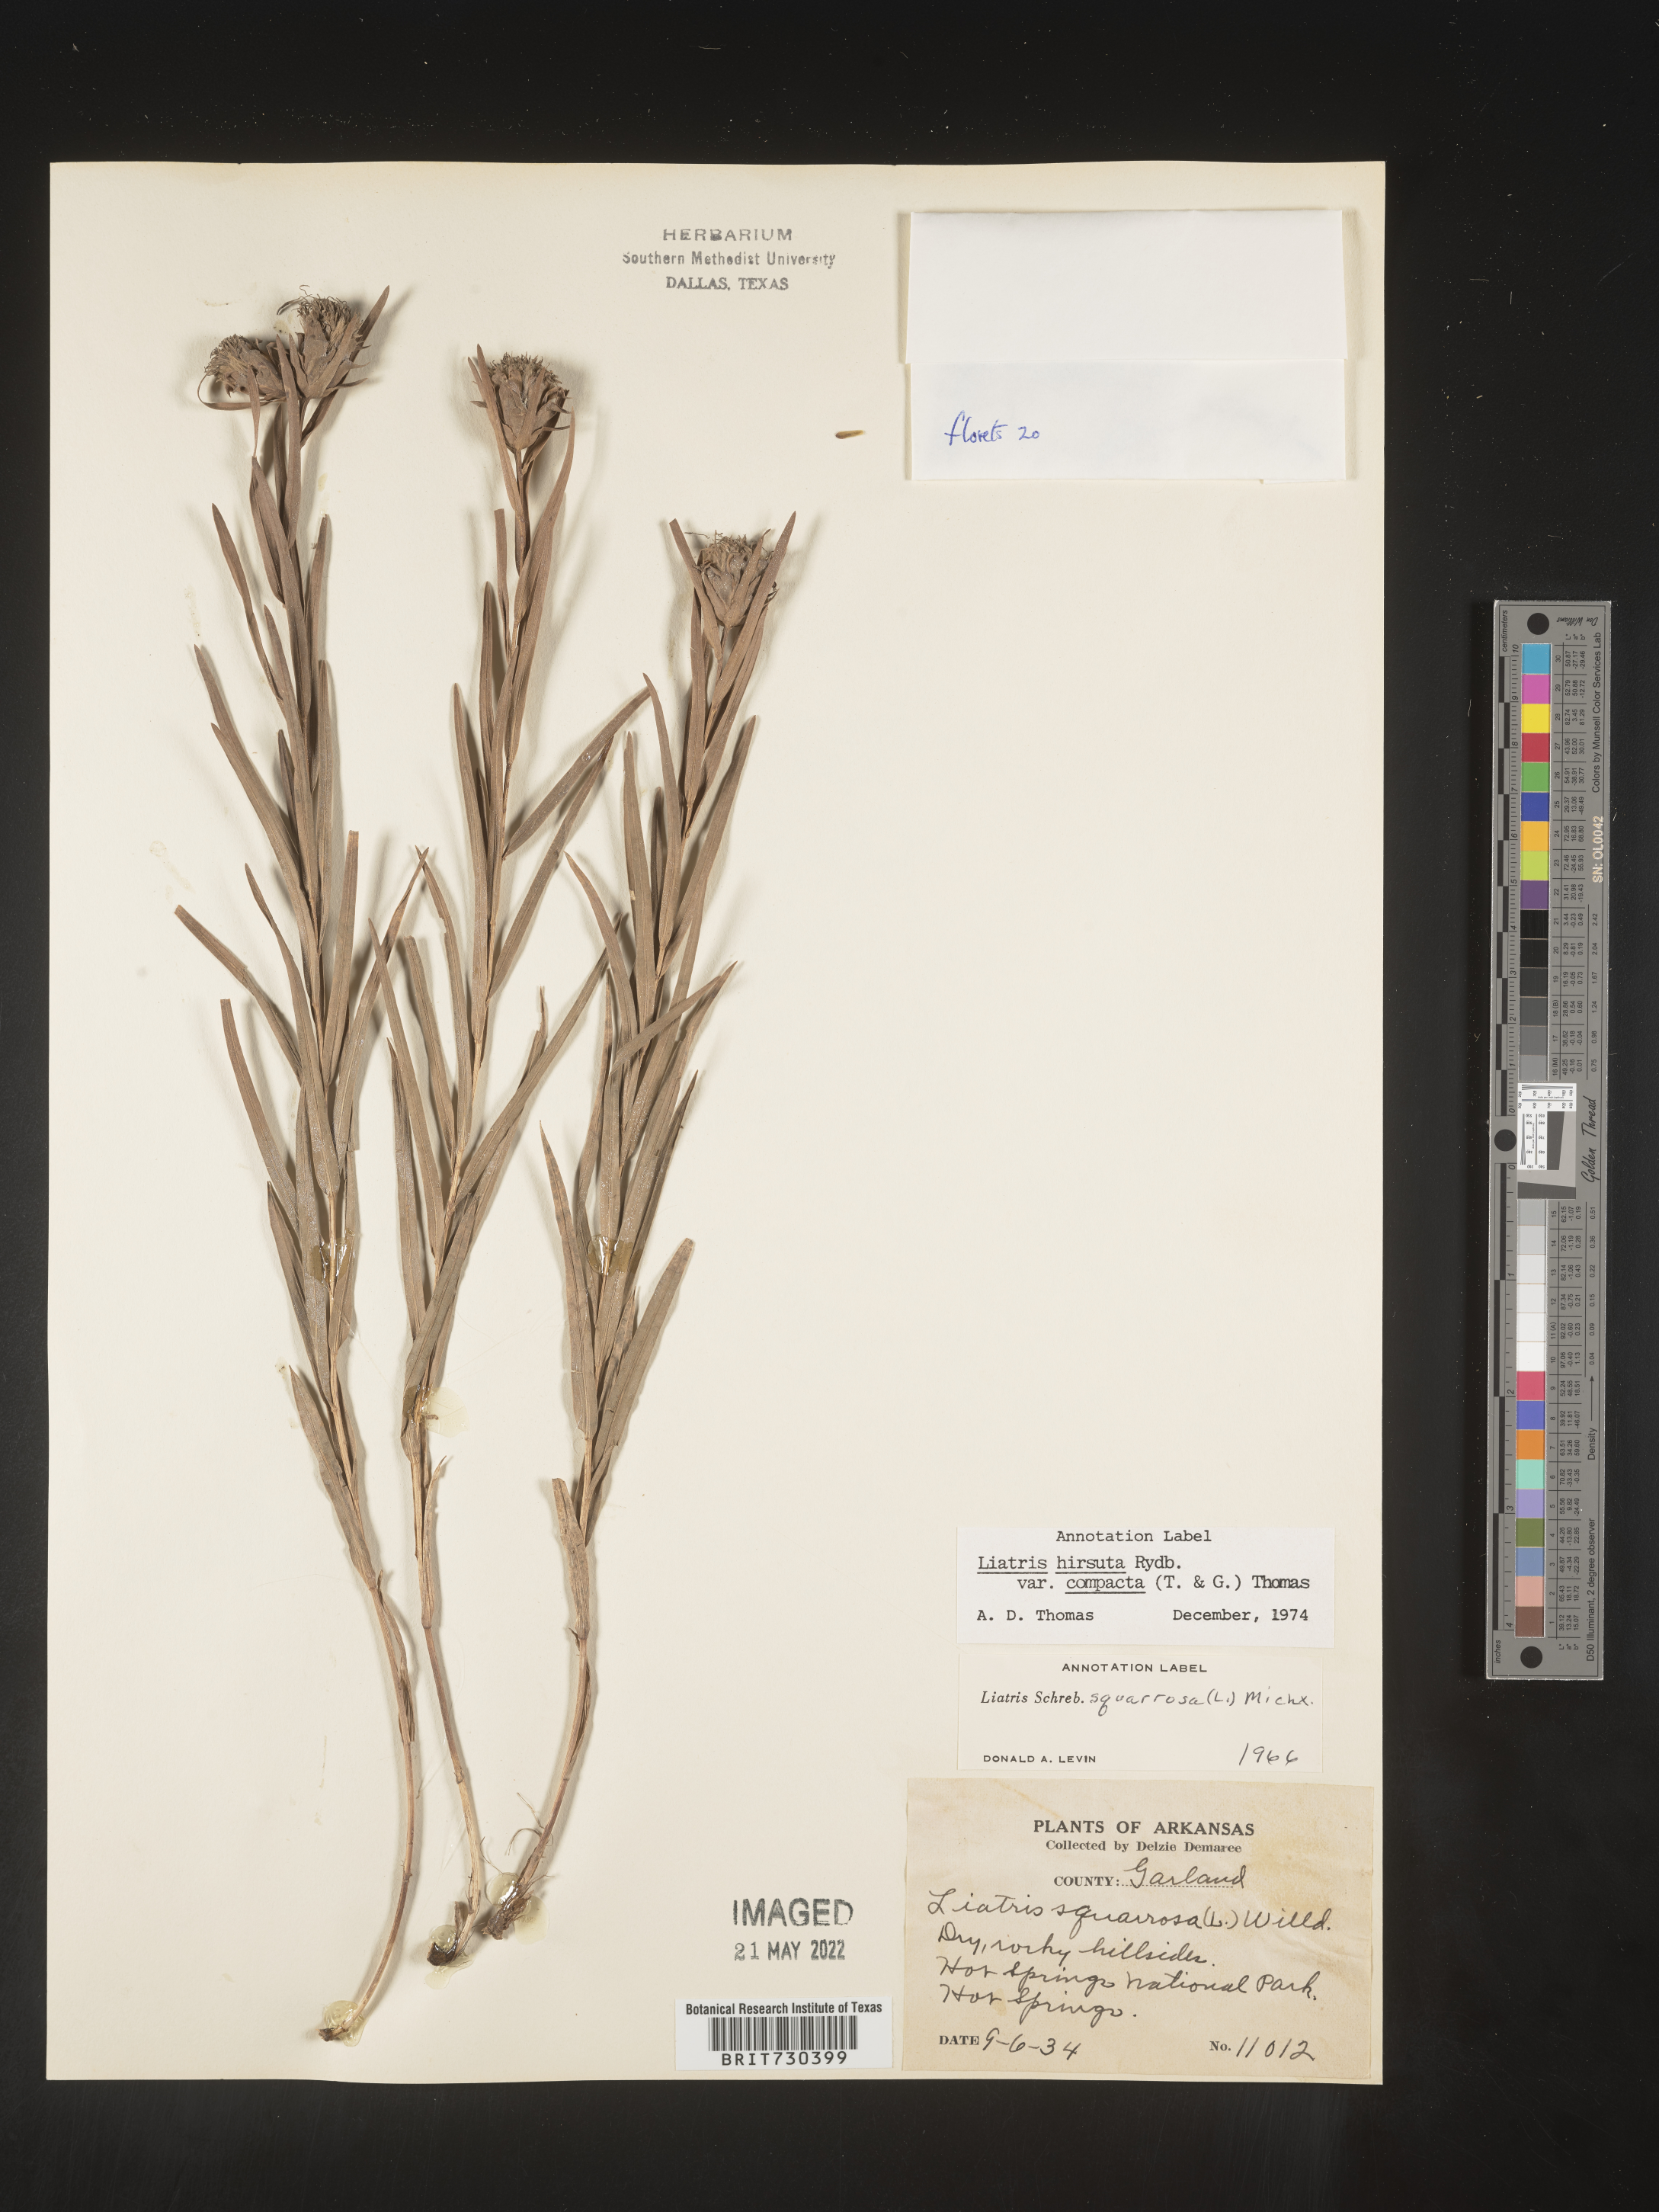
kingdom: Plantae
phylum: Tracheophyta
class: Magnoliopsida
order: Asterales
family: Asteraceae
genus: Liatris
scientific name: Liatris compacta
